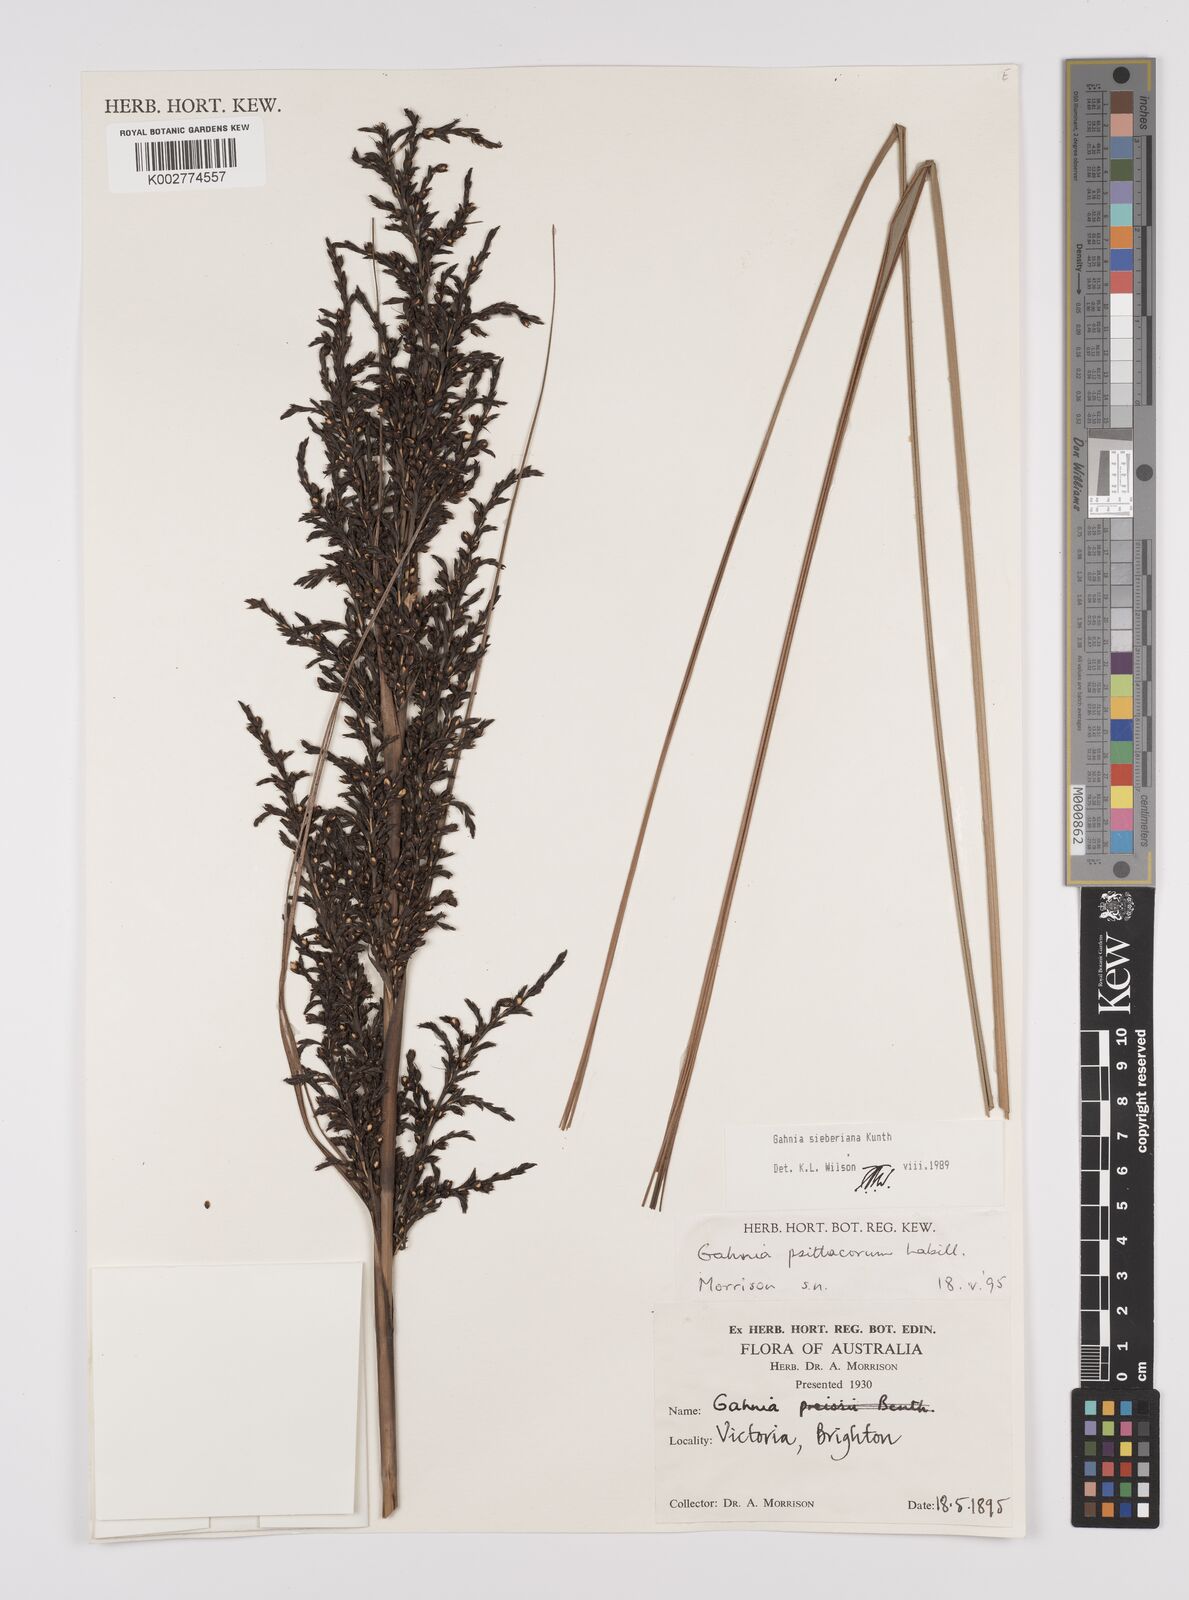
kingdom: Plantae
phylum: Tracheophyta
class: Liliopsida
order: Poales
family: Cyperaceae
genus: Gahnia
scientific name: Gahnia sieberiana
